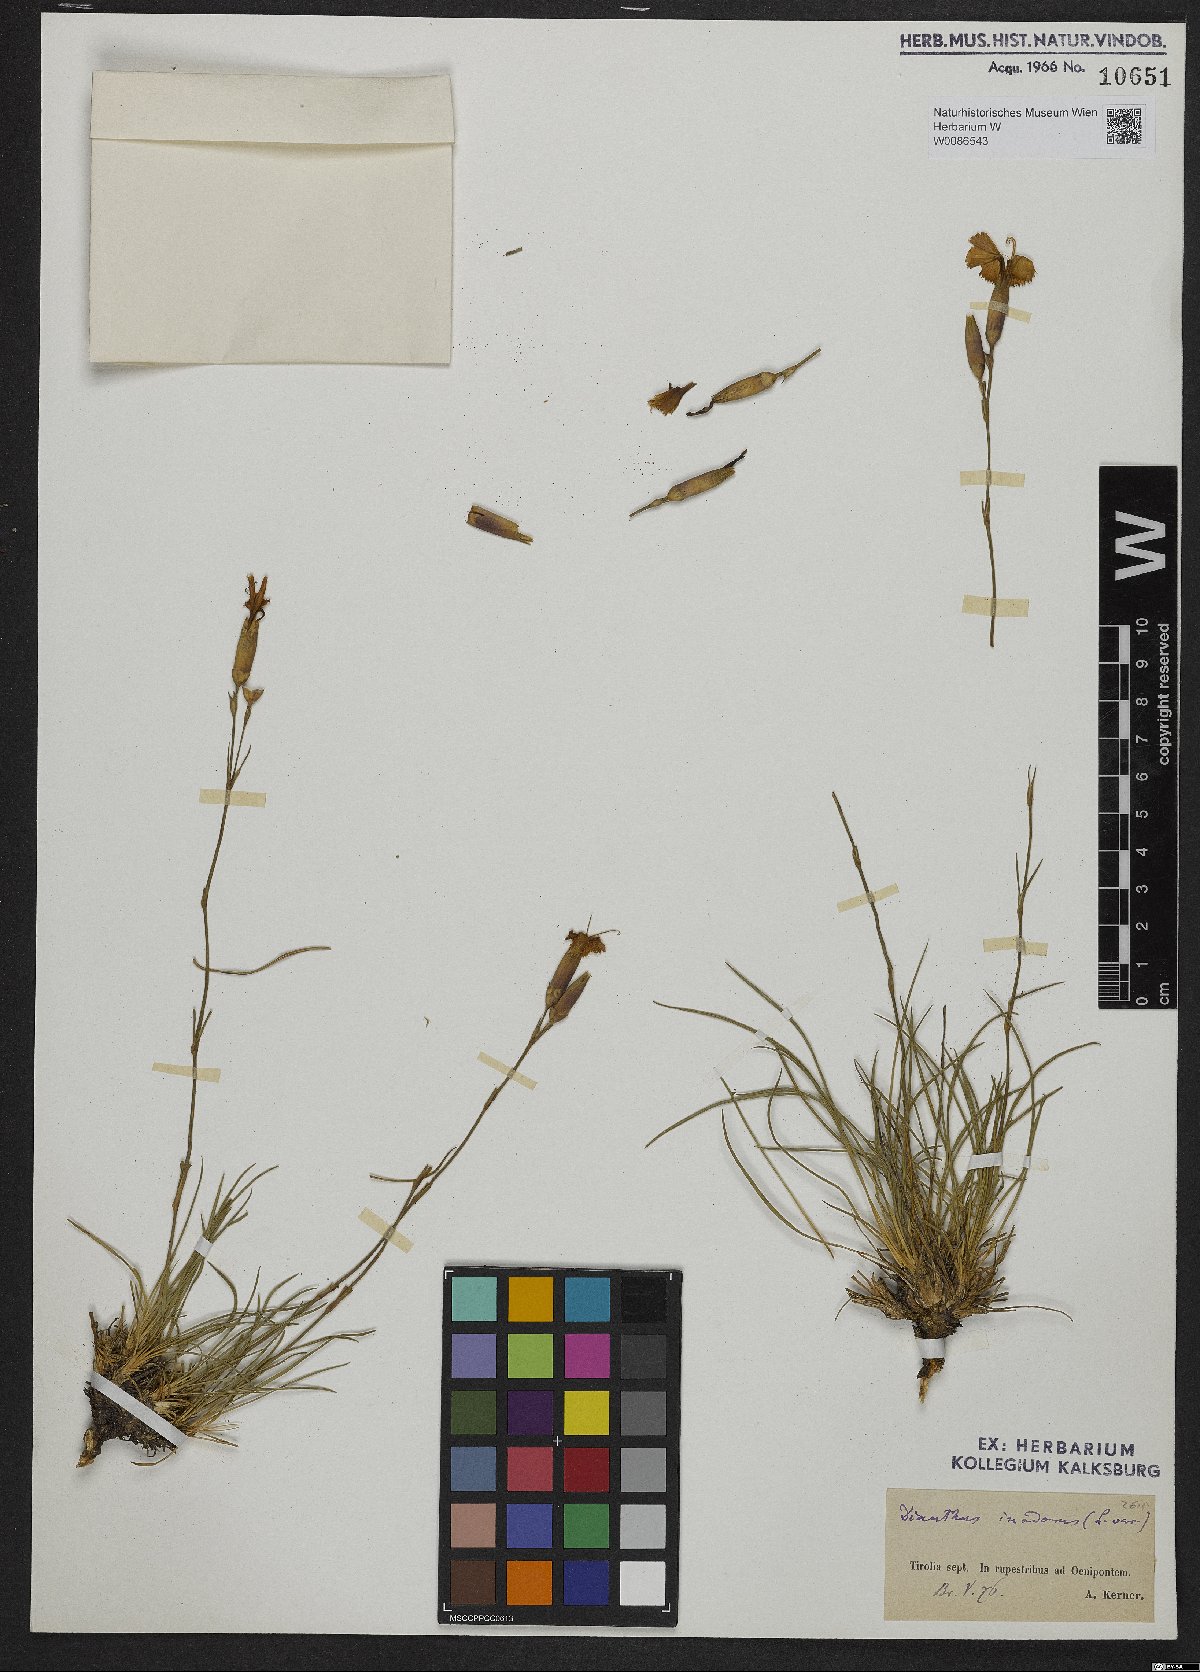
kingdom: Plantae
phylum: Tracheophyta
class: Magnoliopsida
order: Caryophyllales
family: Caryophyllaceae
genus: Dianthus
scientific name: Dianthus sylvestris
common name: Wood pink
